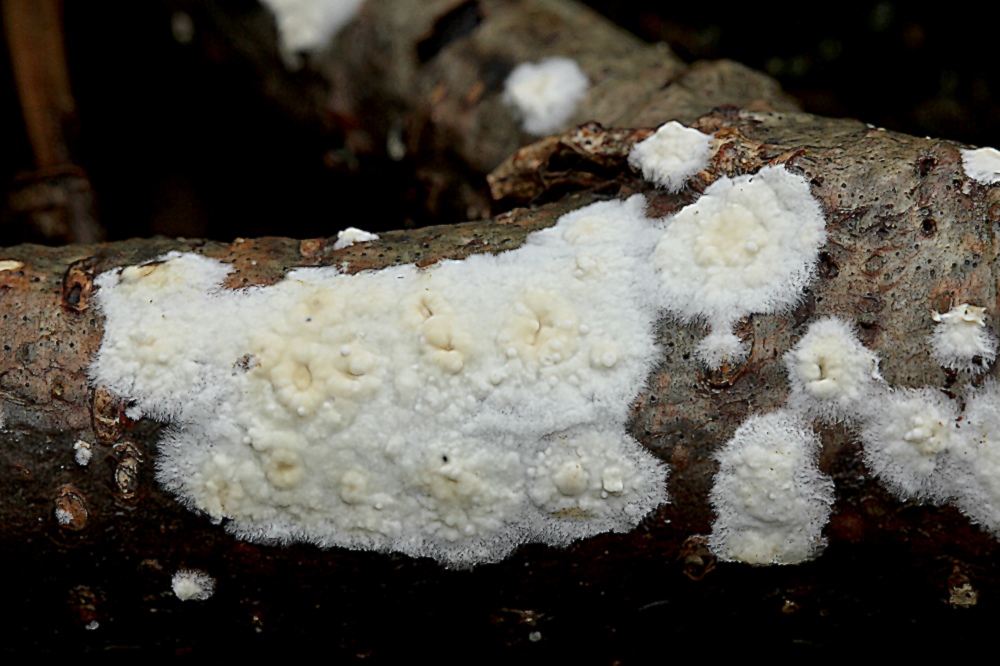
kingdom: Fungi
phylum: Basidiomycota
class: Agaricomycetes
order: Corticiales
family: Corticiaceae
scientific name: Corticiaceae
